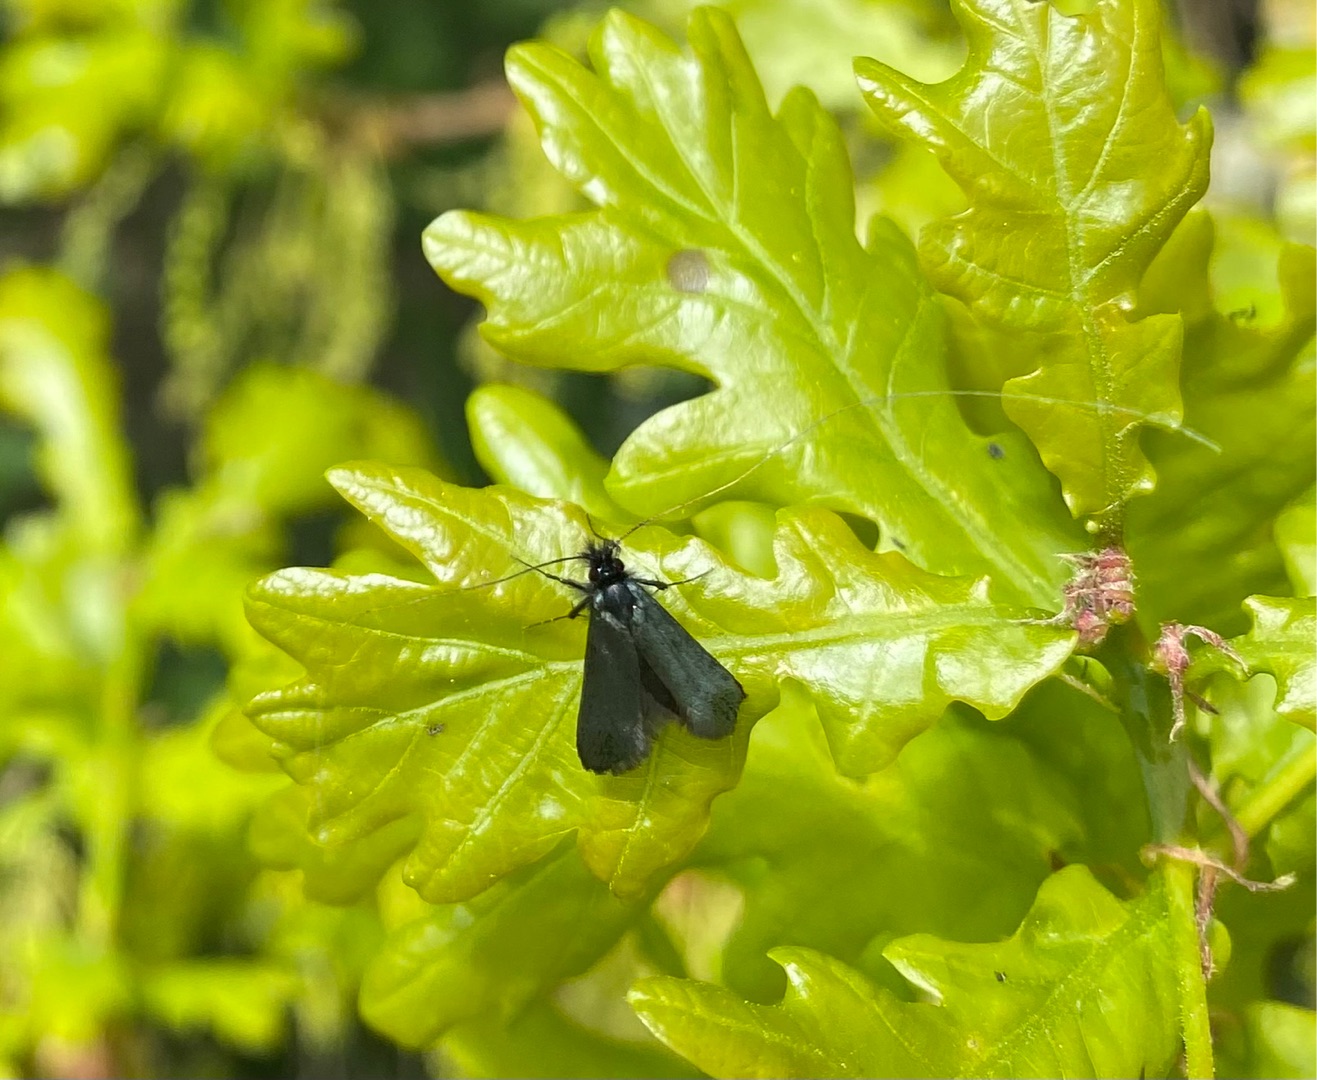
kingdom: Animalia
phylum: Arthropoda
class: Insecta
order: Lepidoptera
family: Adelidae
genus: Adela
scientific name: Adela viridella
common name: Egelanghornsmøl
